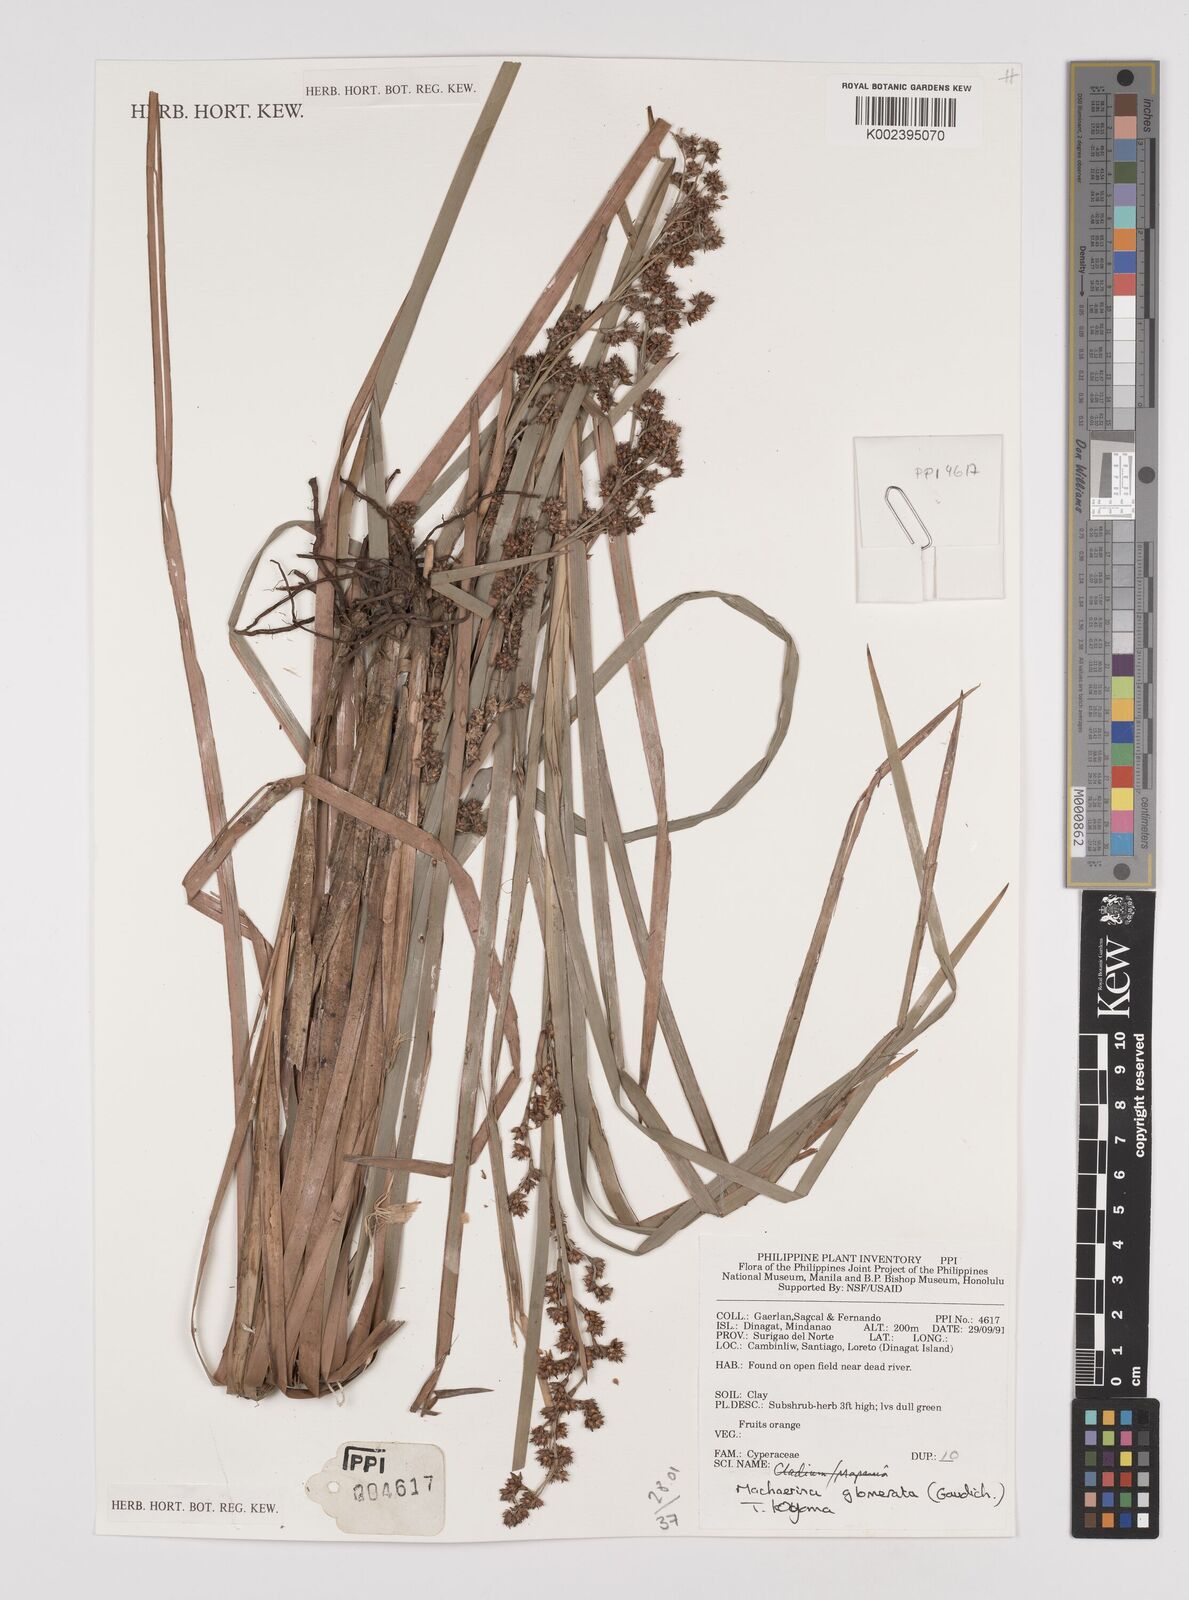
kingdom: Plantae
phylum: Tracheophyta
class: Liliopsida
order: Poales
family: Cyperaceae
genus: Machaerina
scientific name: Machaerina glomerata
